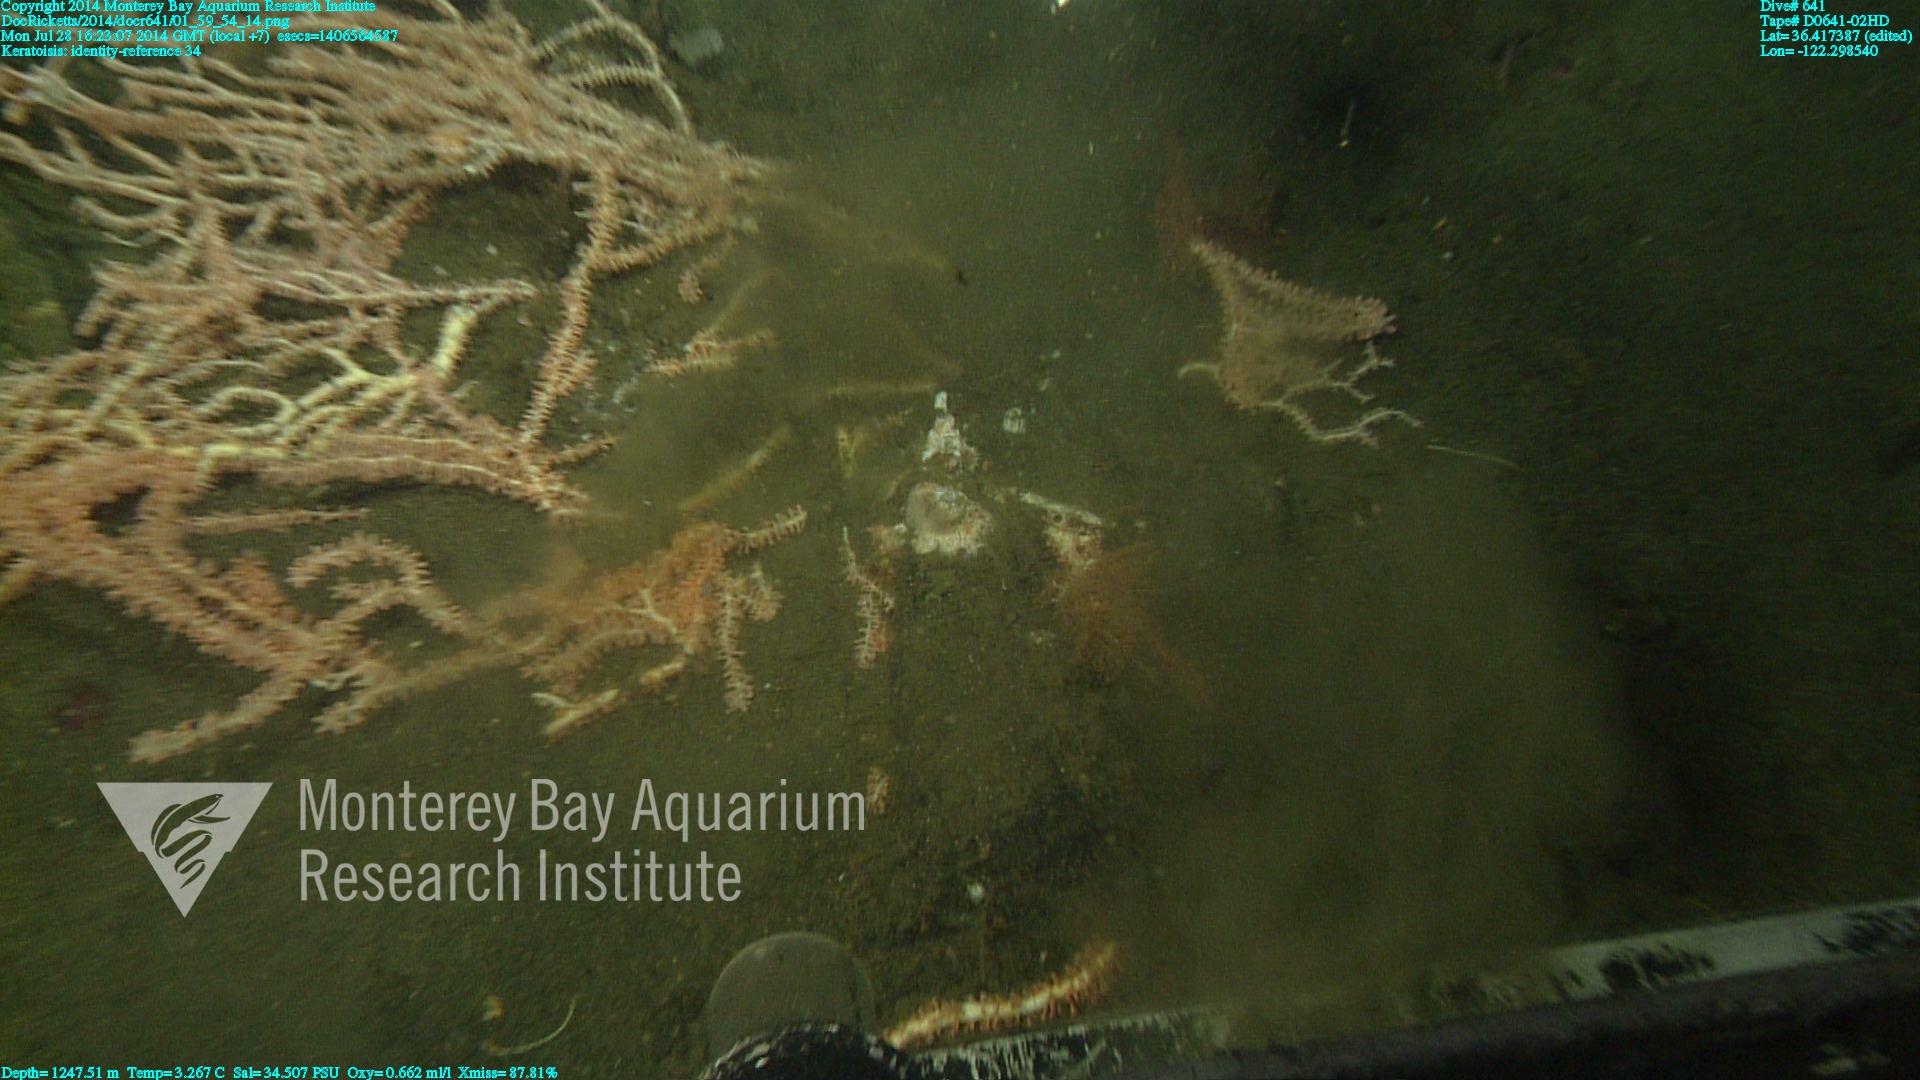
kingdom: Animalia
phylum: Cnidaria
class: Anthozoa
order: Scleralcyonacea
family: Keratoisididae
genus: Keratoisis
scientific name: Keratoisis
